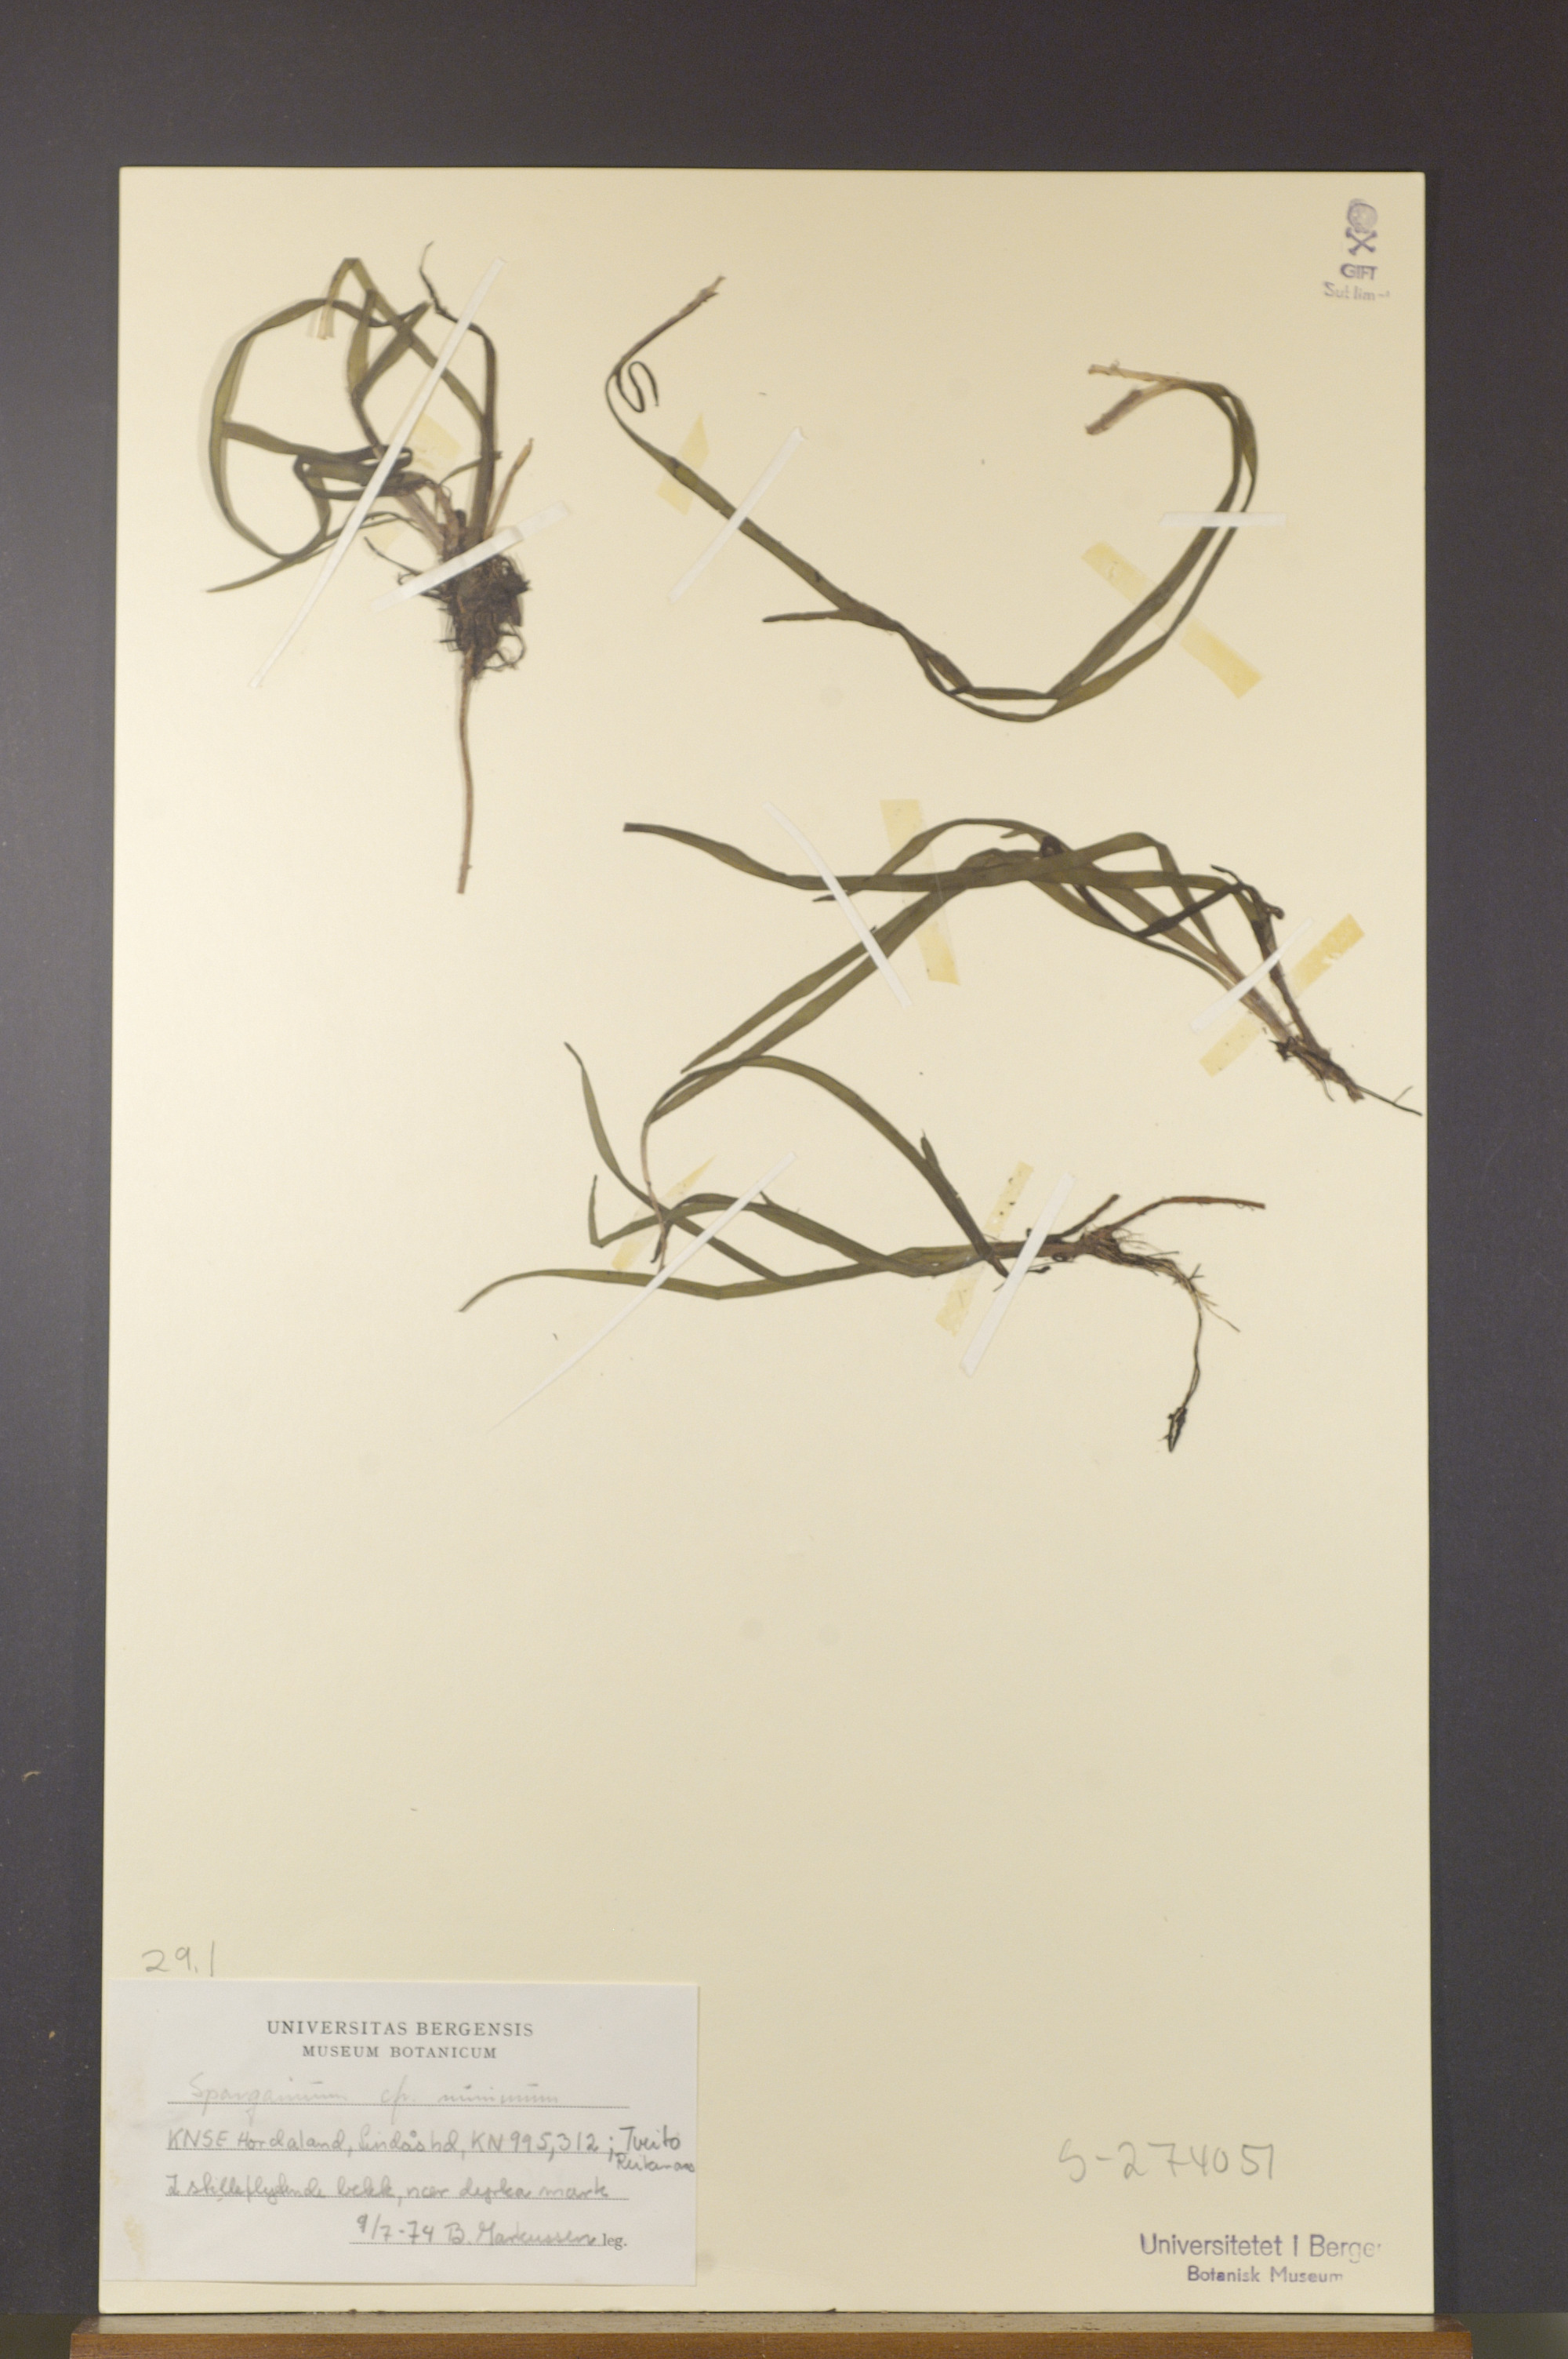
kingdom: Plantae
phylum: Tracheophyta
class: Liliopsida
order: Poales
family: Typhaceae
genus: Sparganium
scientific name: Sparganium natans
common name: Least bur-reed
